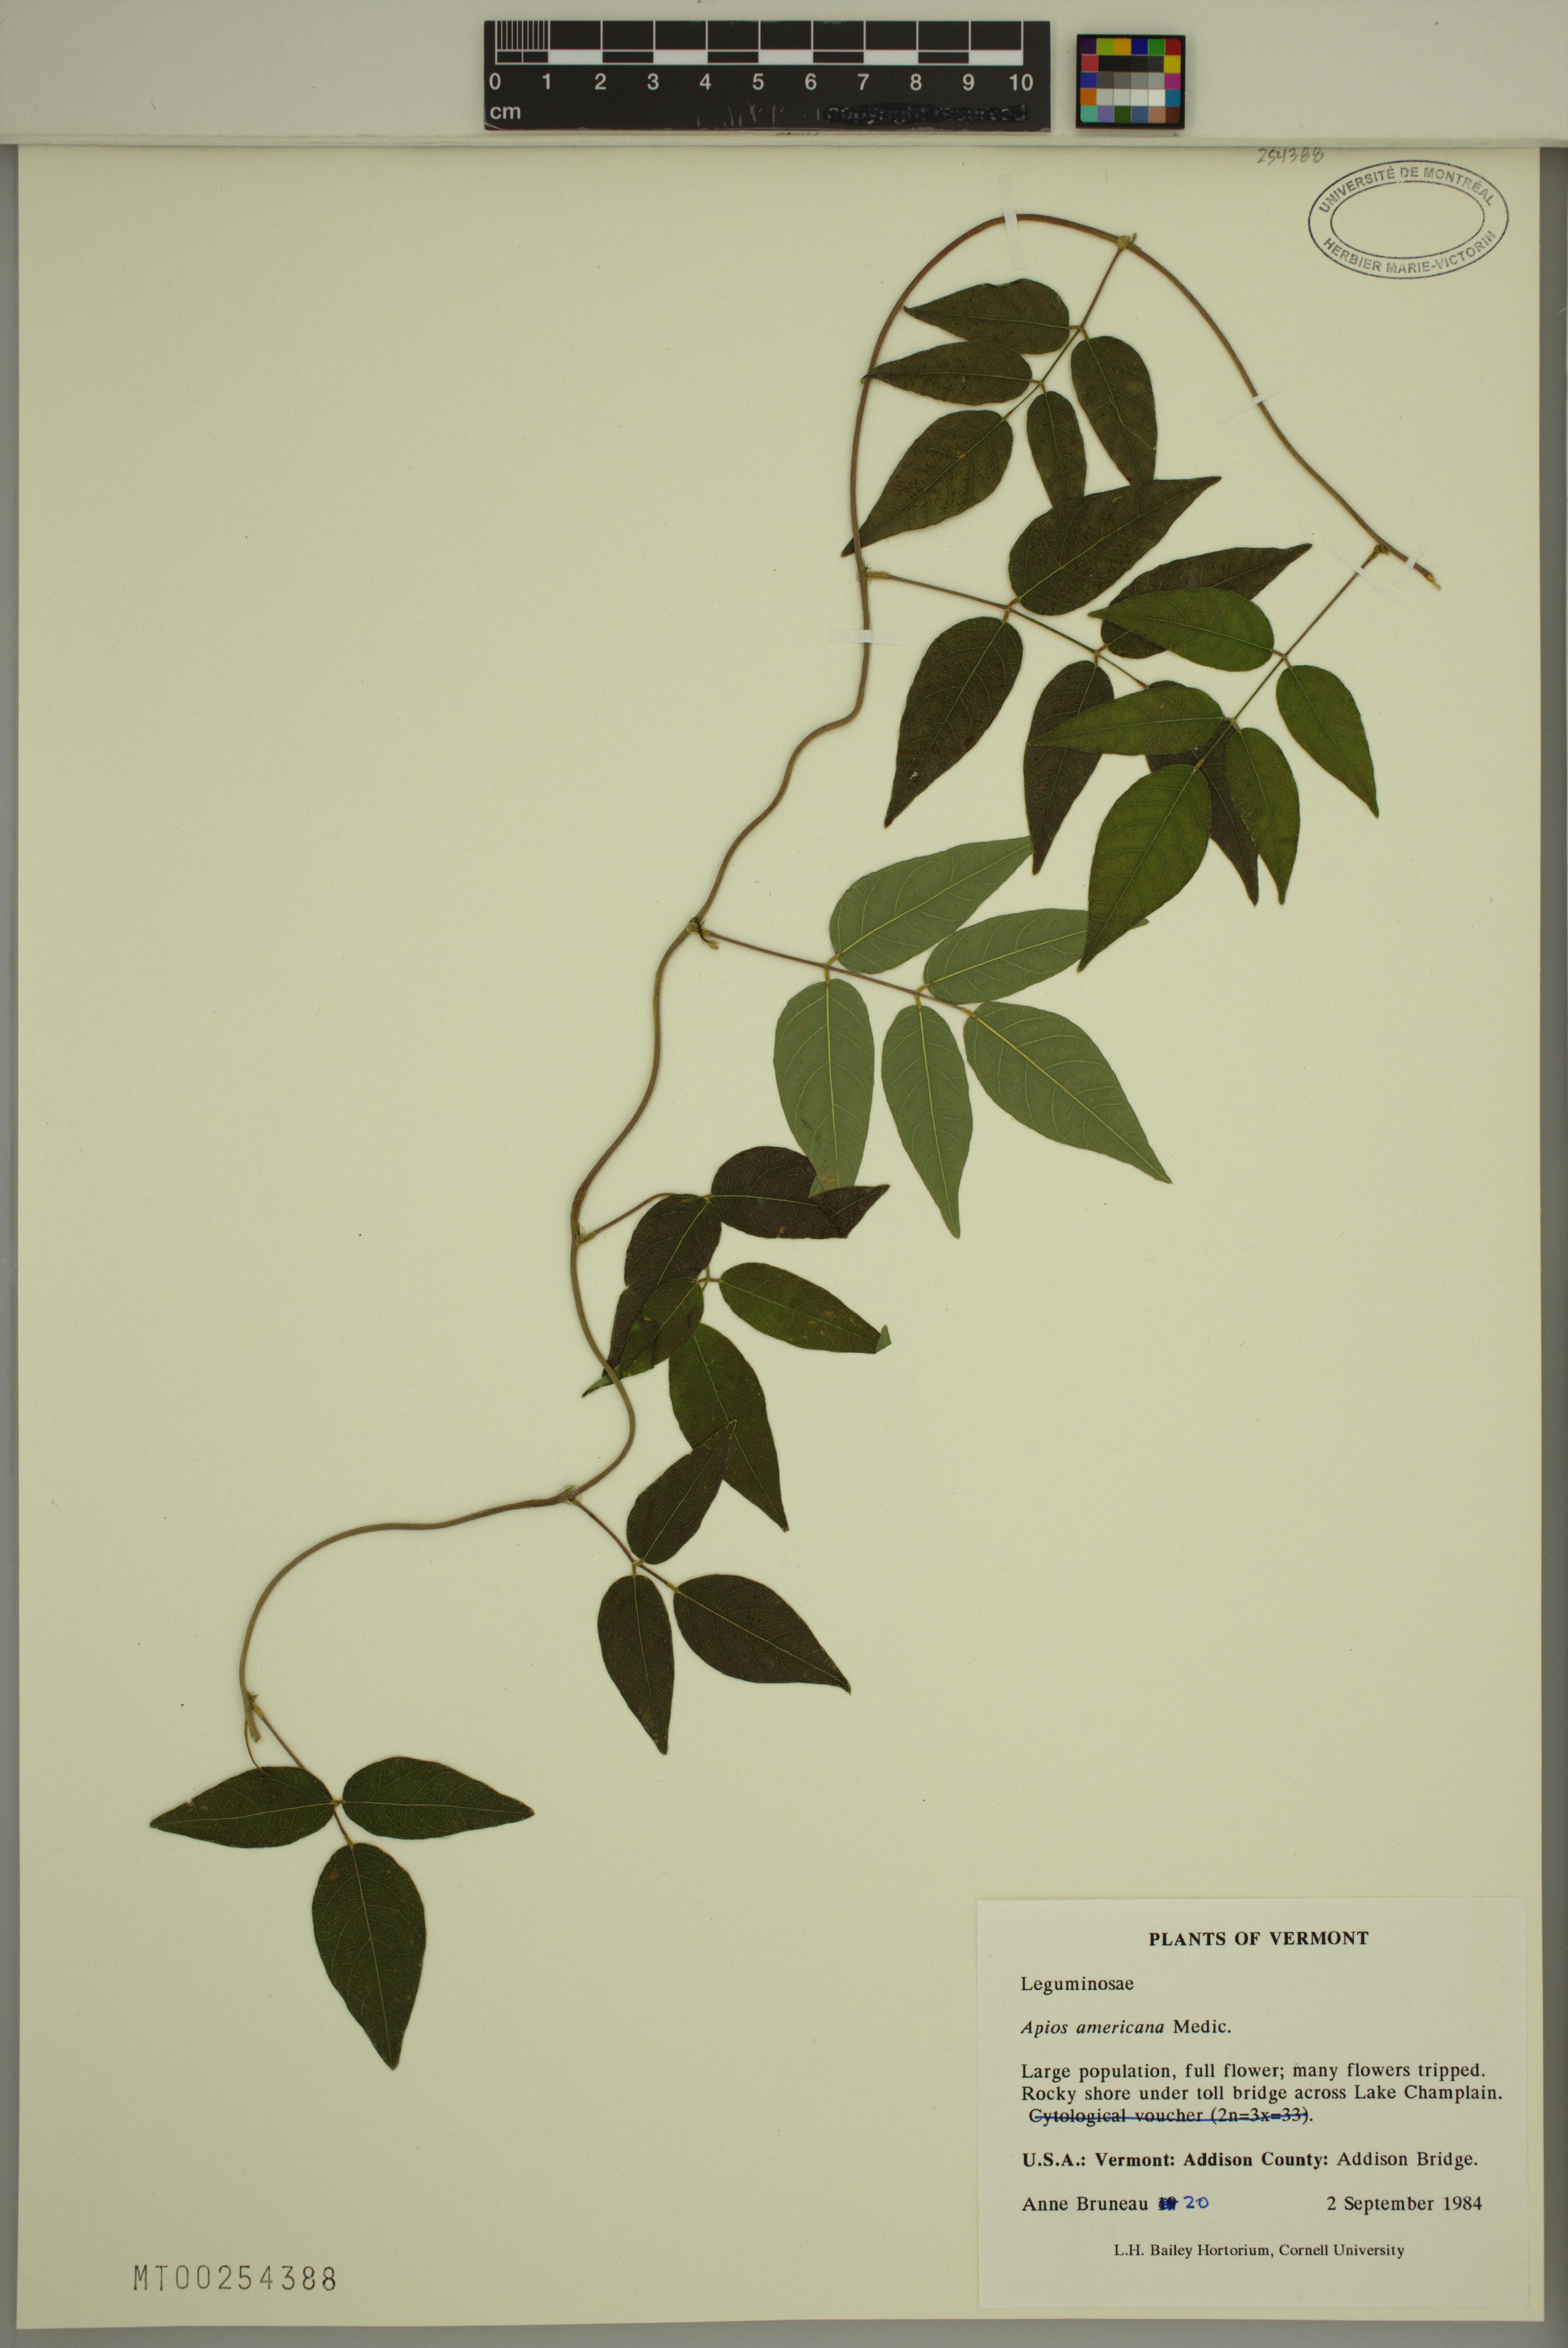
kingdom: Plantae
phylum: Tracheophyta
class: Magnoliopsida
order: Fabales
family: Fabaceae
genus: Apios
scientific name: Apios americana
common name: American potato-bean
